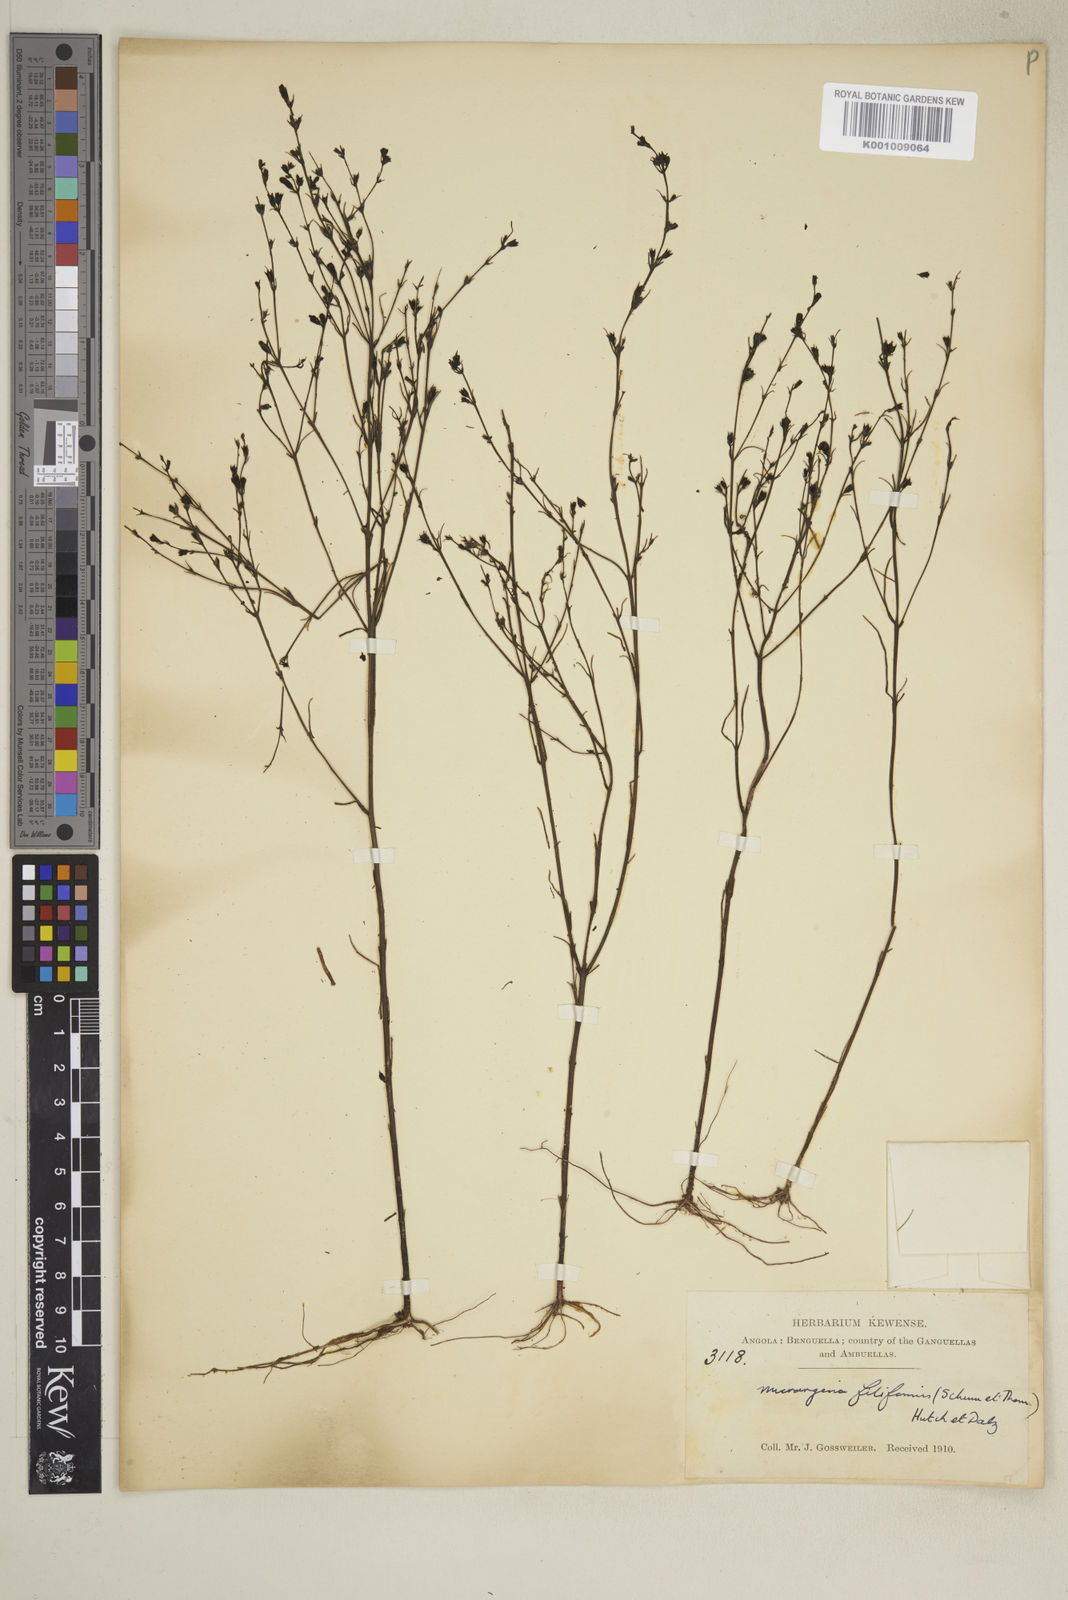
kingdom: Plantae
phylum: Tracheophyta
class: Magnoliopsida
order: Lamiales
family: Orobanchaceae
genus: Micrargeria
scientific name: Micrargeria filiformis
